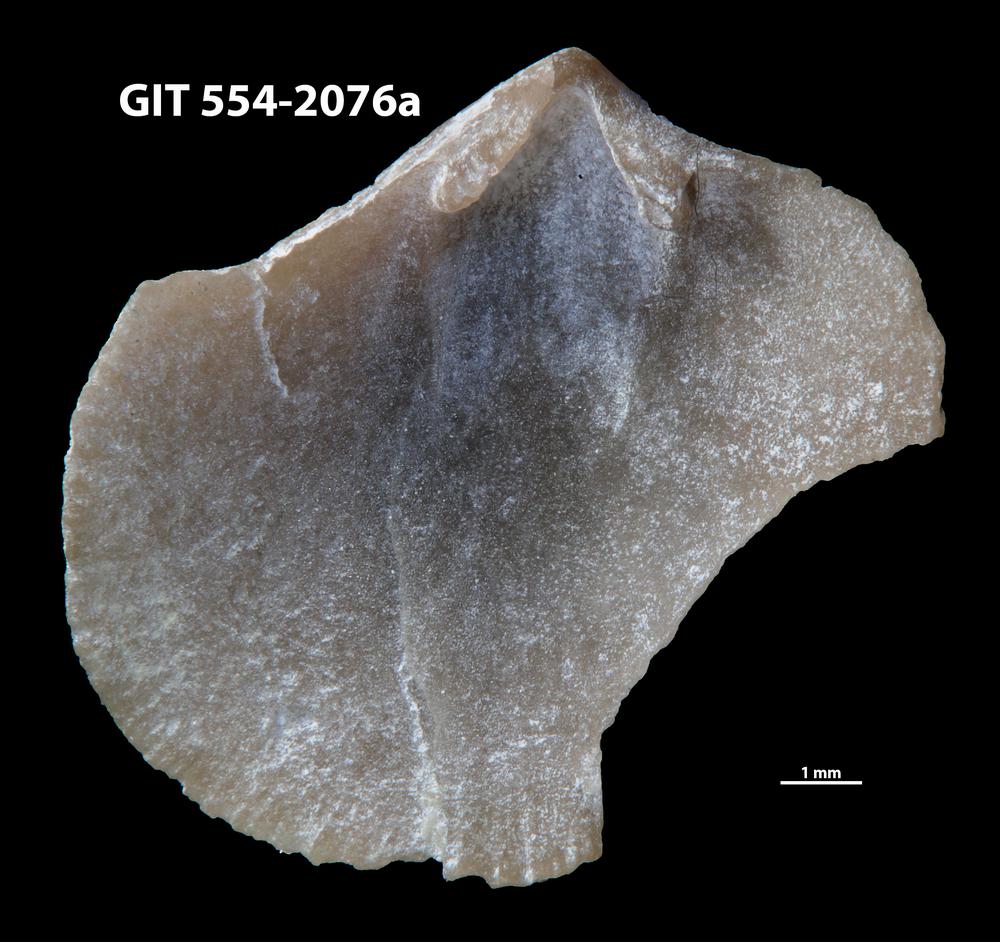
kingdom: Animalia
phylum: Brachiopoda
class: Rhynchonellata
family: Dalmanellidae
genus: Isorthis
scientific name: Isorthis Onniella mediocra
